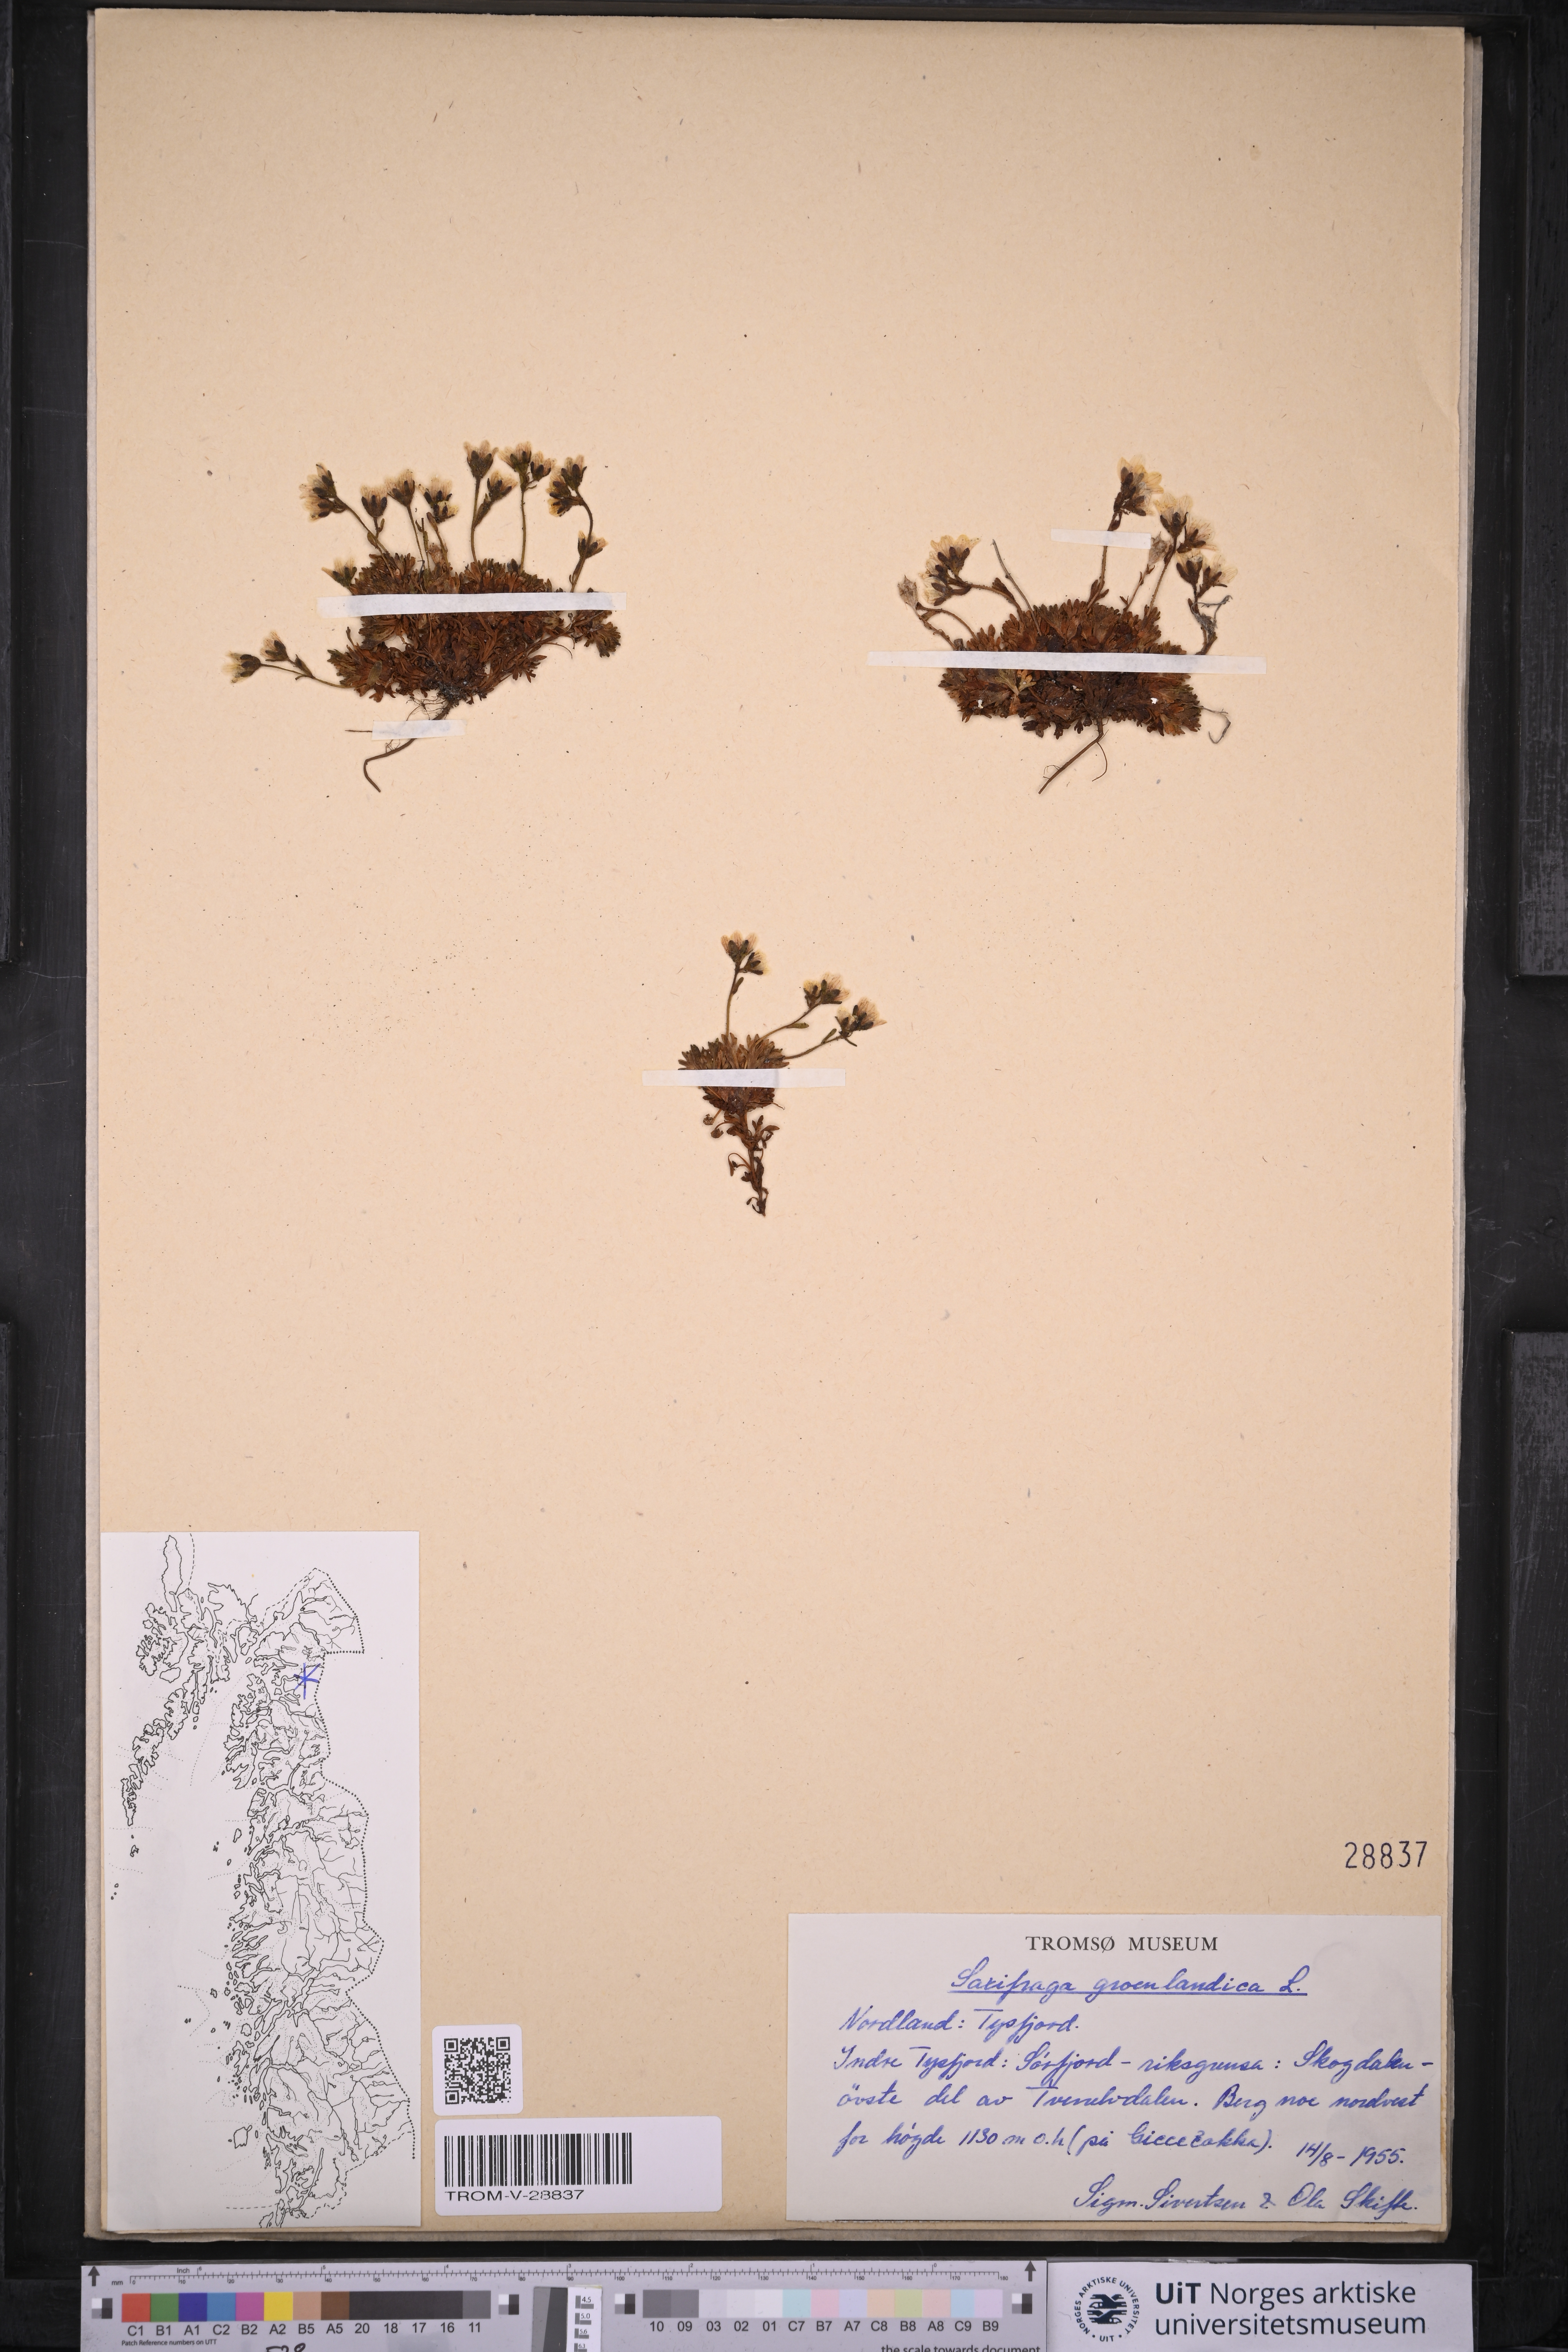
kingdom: Plantae
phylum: Tracheophyta
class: Magnoliopsida
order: Saxifragales
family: Saxifragaceae
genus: Saxifraga
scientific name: Saxifraga cespitosa
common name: Tufted saxifrage
